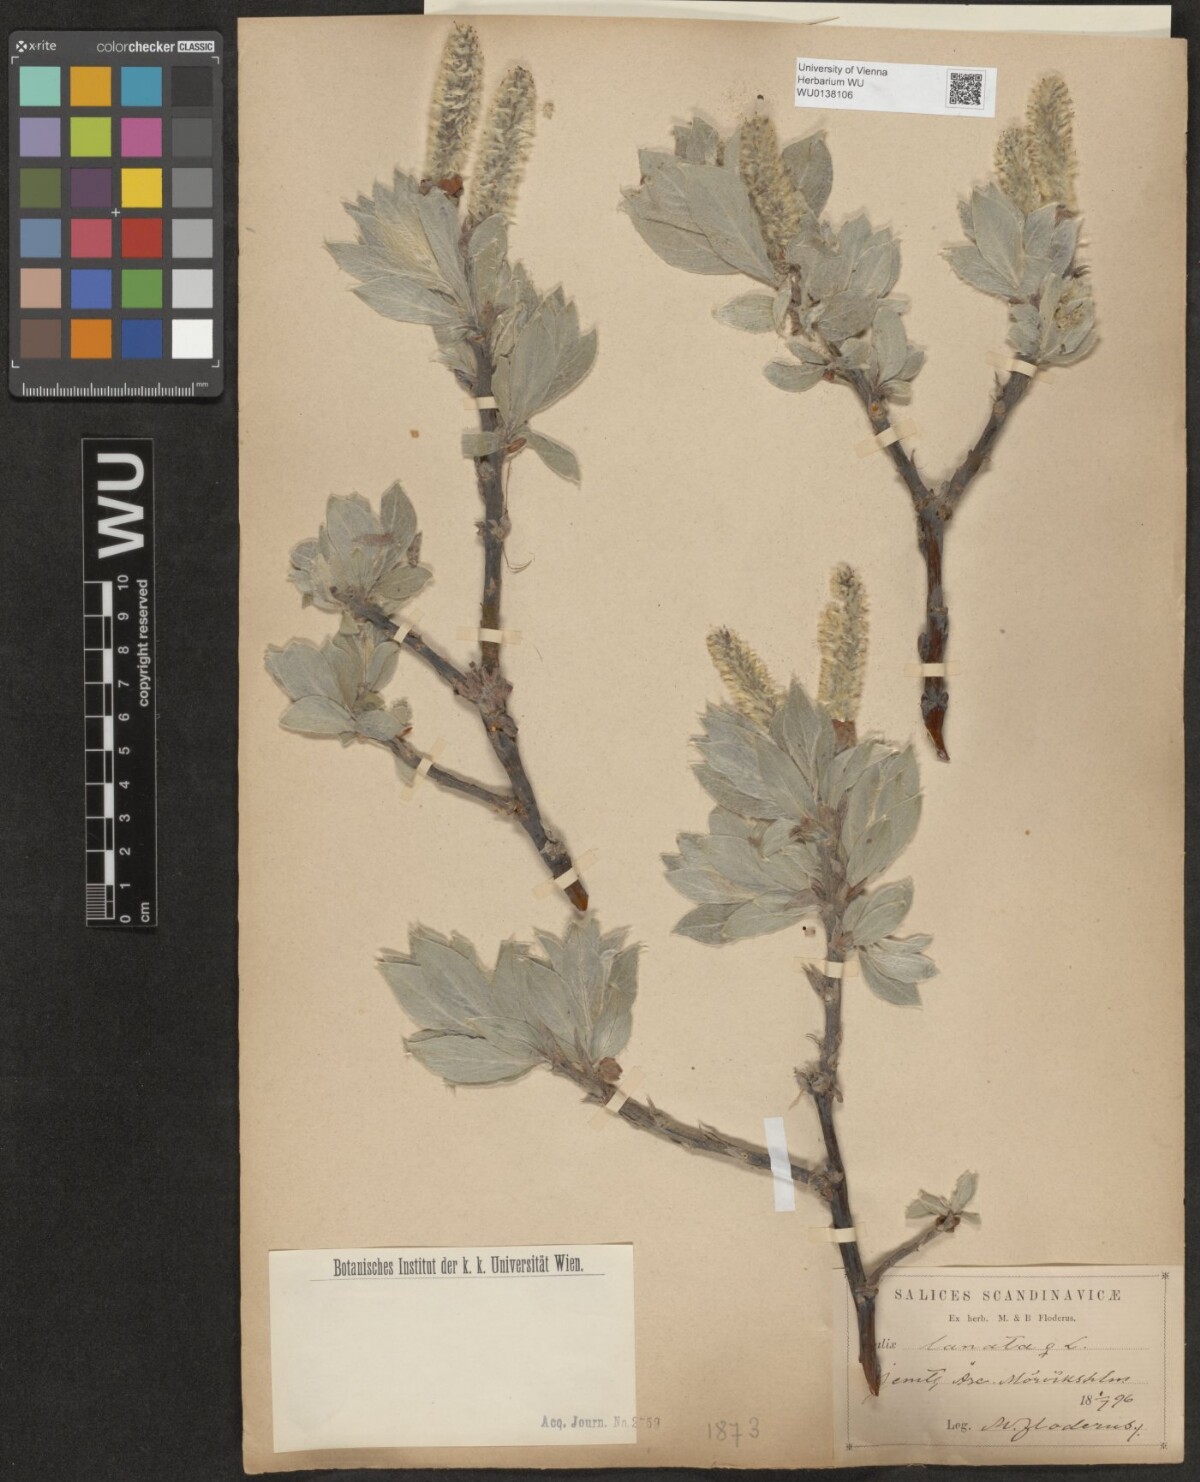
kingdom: Plantae
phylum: Tracheophyta
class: Magnoliopsida
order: Malpighiales
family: Salicaceae
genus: Salix
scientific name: Salix lanata
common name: Woolly willow
